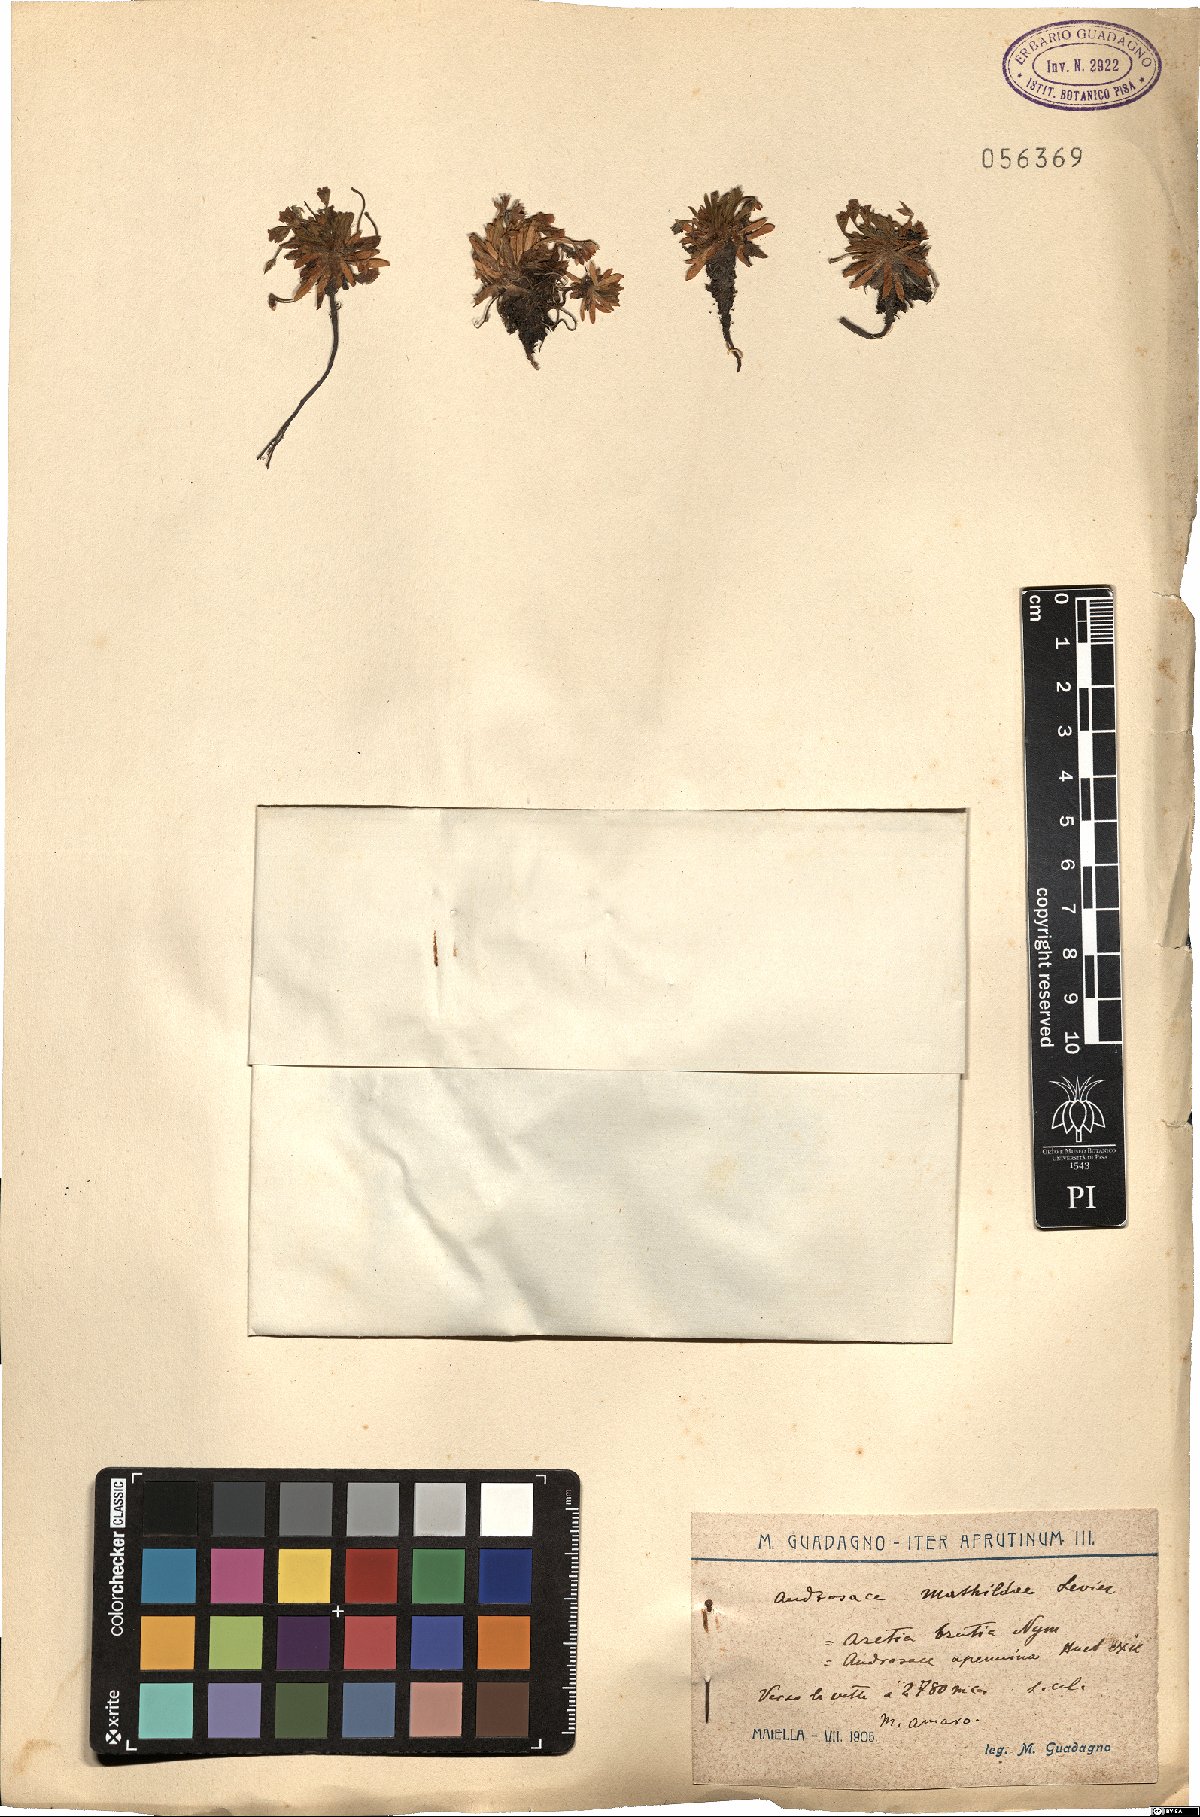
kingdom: Plantae
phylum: Tracheophyta
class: Magnoliopsida
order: Ericales
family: Primulaceae
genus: Androsace
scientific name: Androsace mathildae
